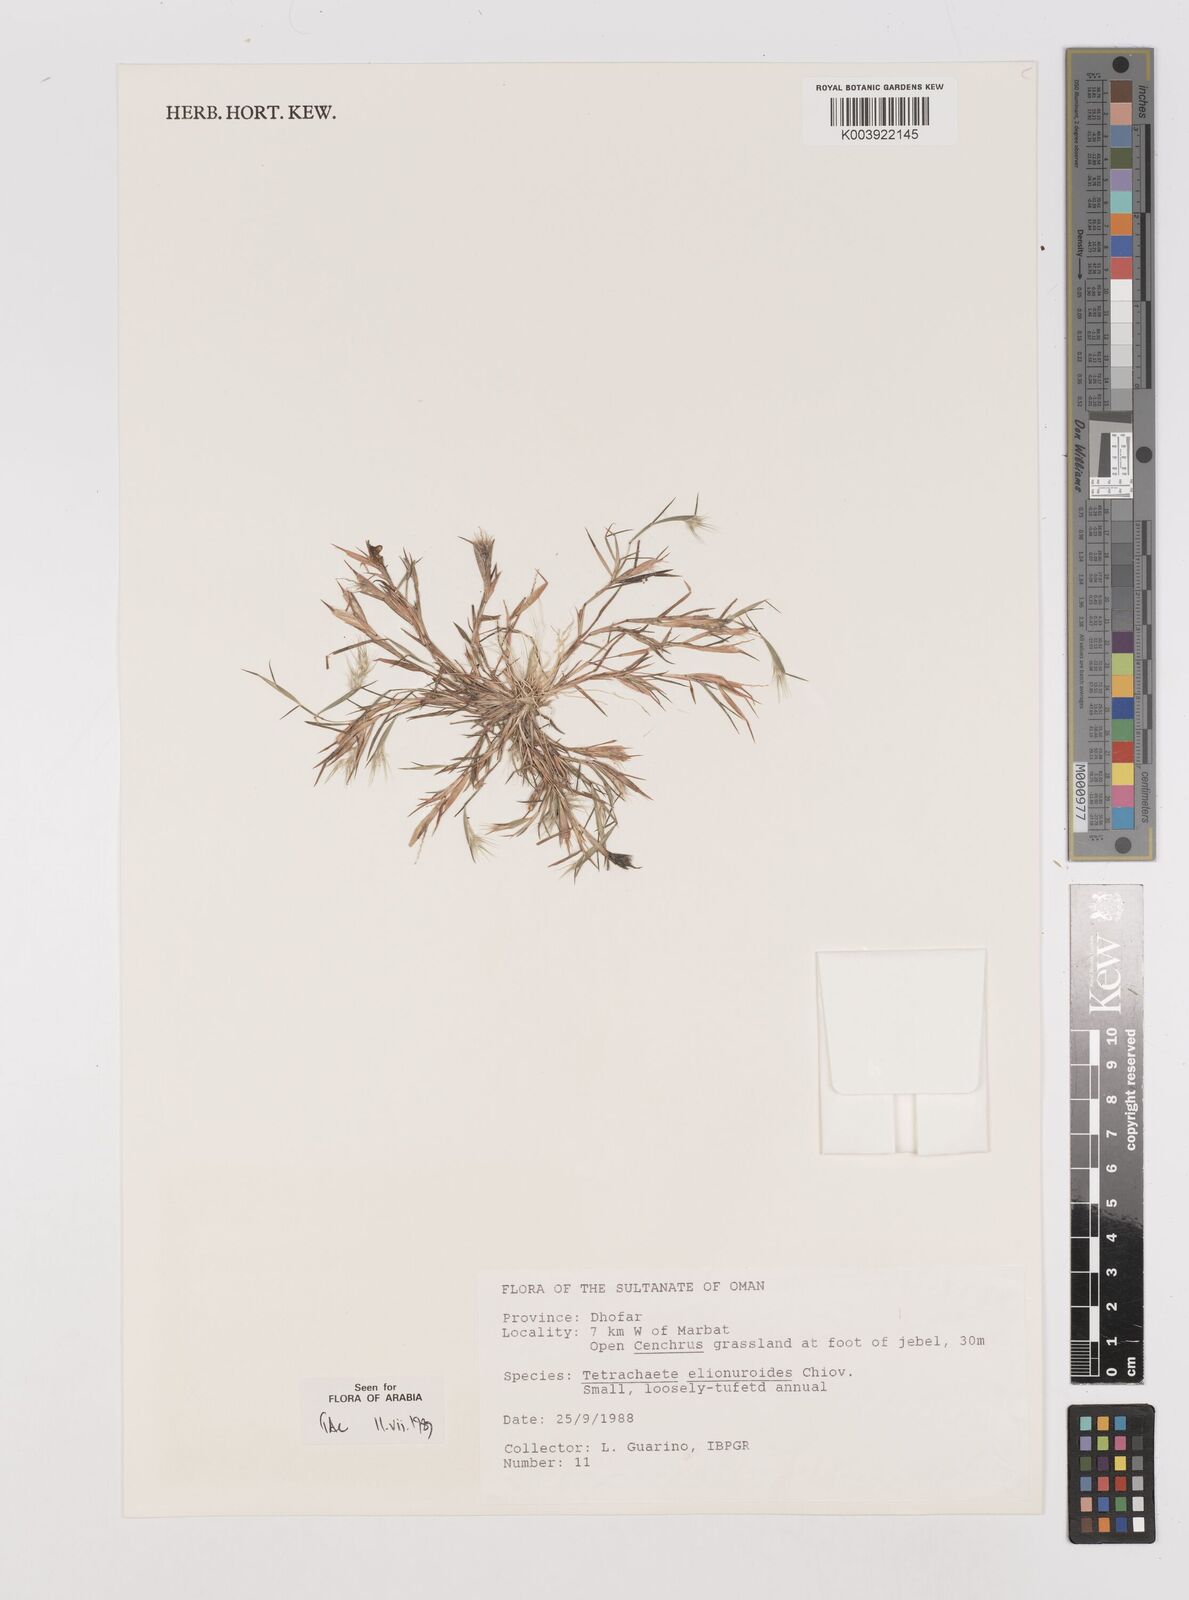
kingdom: Plantae
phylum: Tracheophyta
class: Liliopsida
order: Poales
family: Poaceae
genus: Tetrachaete
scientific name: Tetrachaete elionuroides
